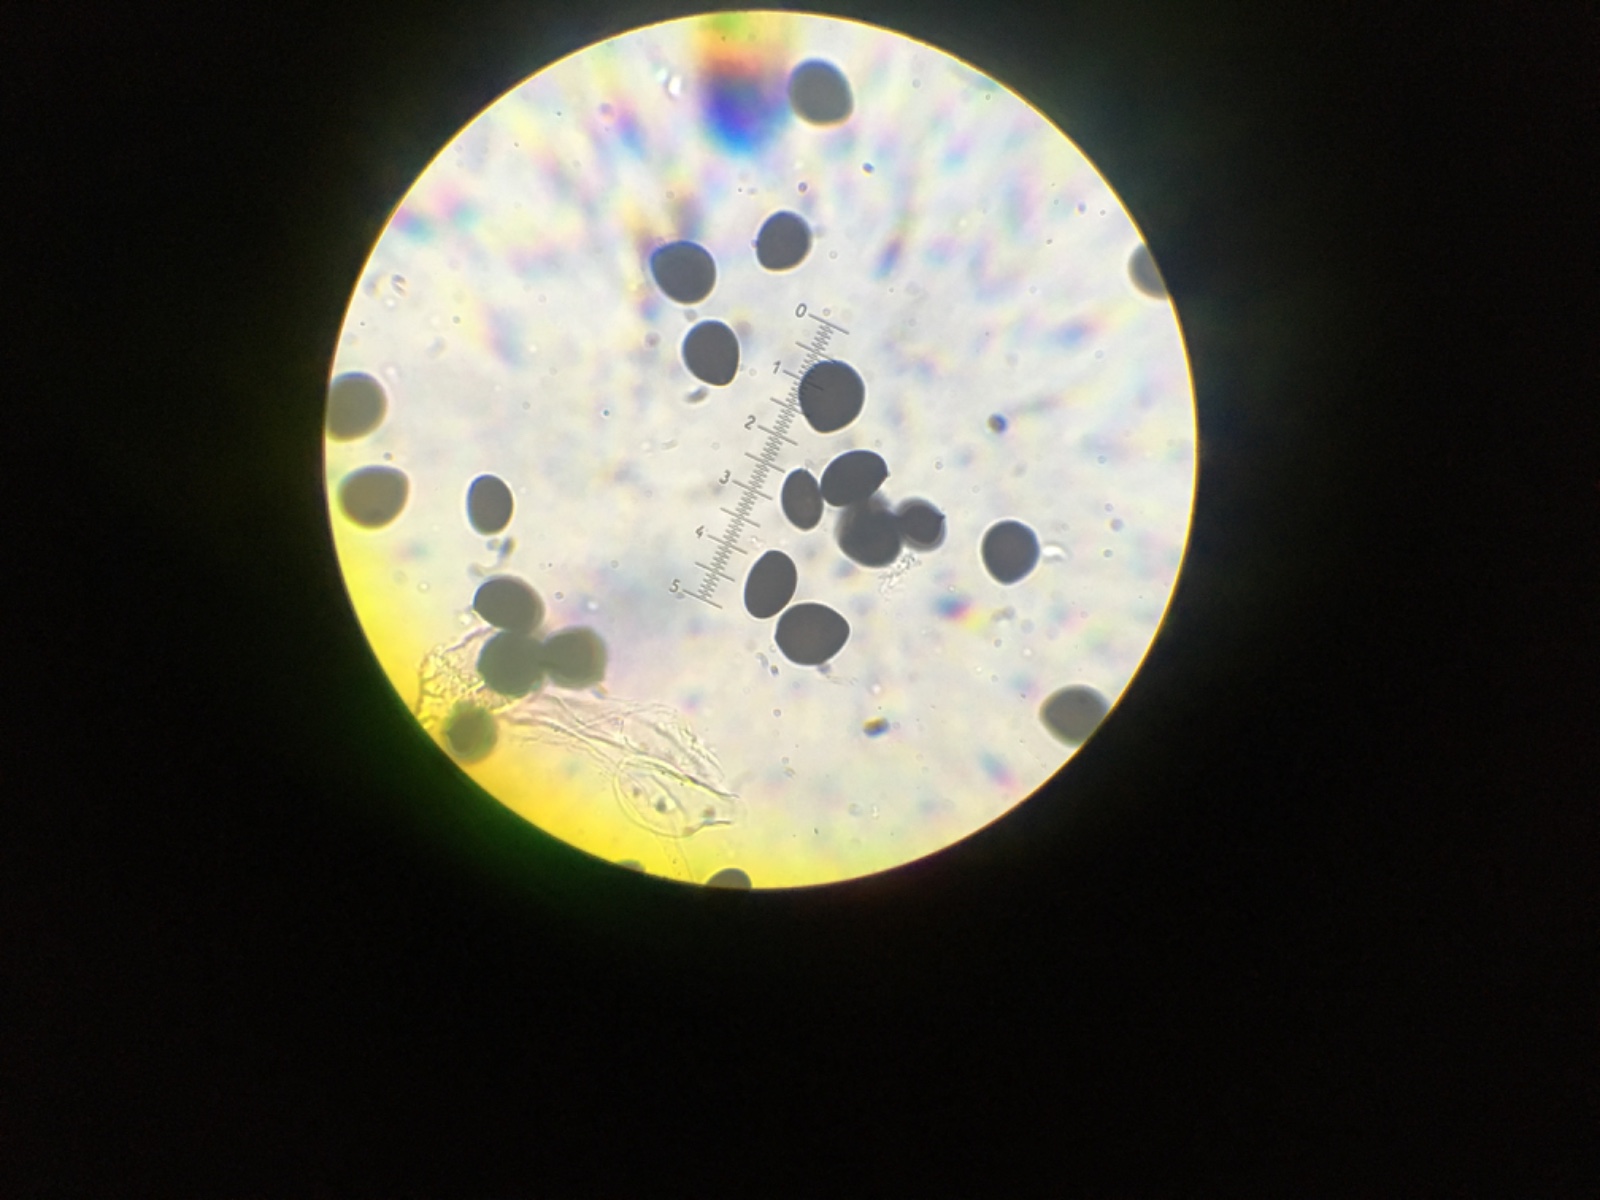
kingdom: Fungi
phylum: Basidiomycota
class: Agaricomycetes
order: Agaricales
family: Psathyrellaceae
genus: Parasola
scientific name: Parasola schroeteri
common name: bredsporet hjulhat
